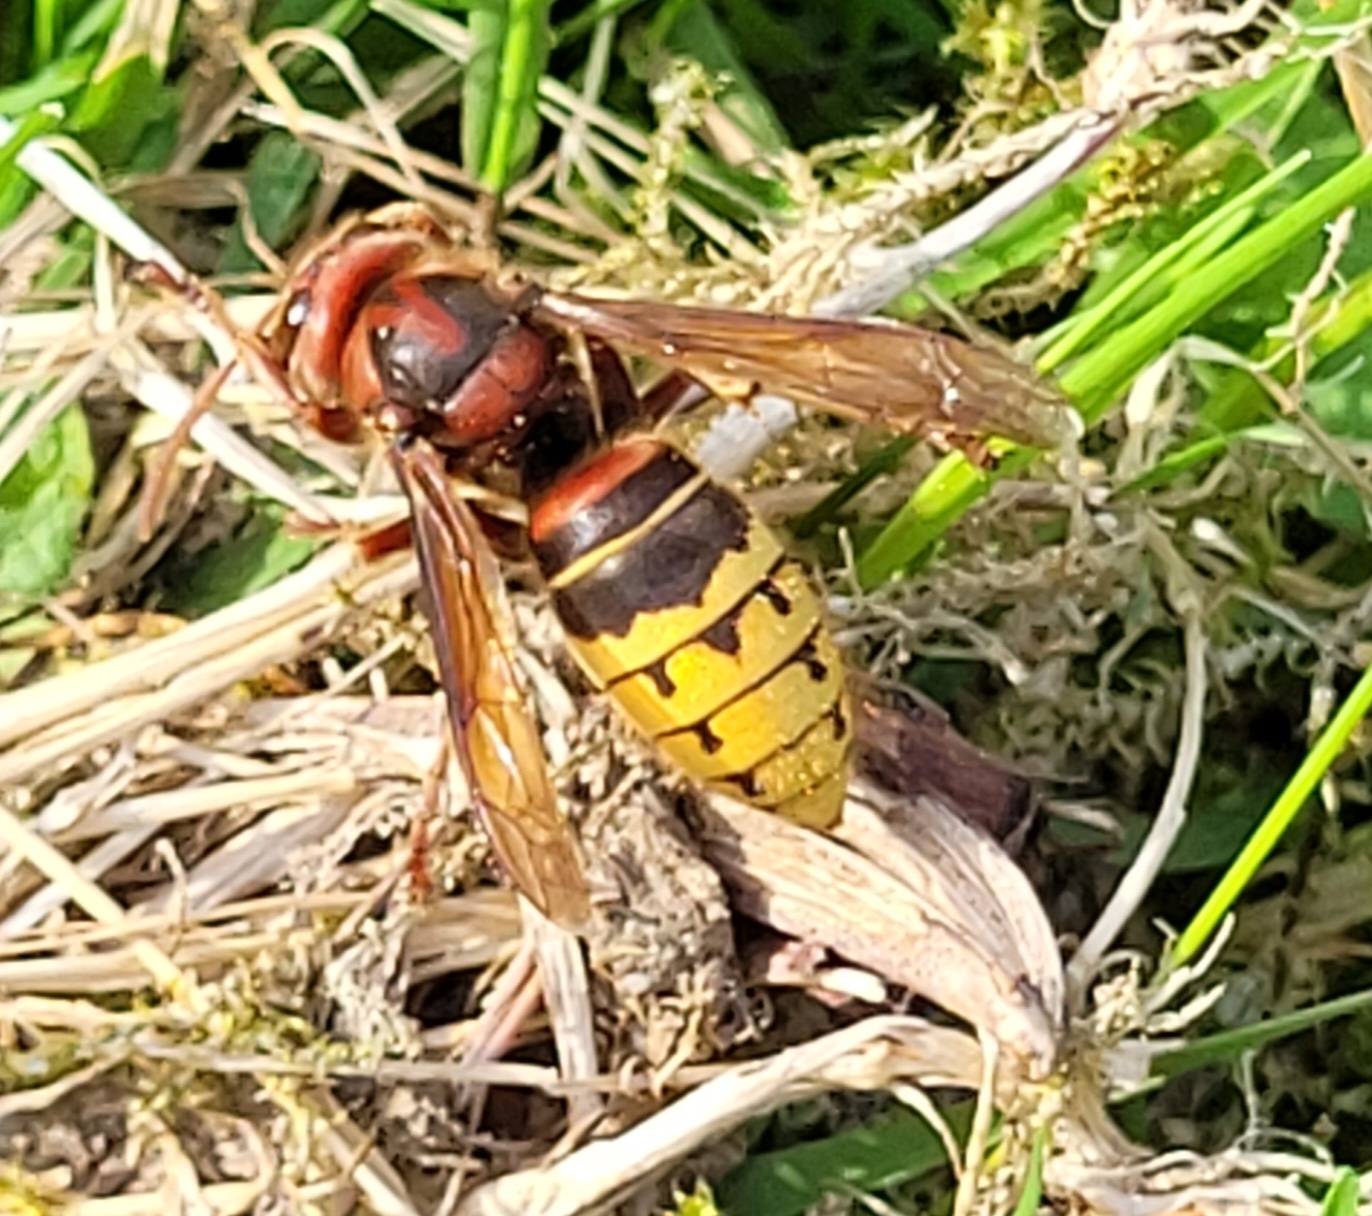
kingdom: Animalia
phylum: Arthropoda
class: Insecta
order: Hymenoptera
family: Vespidae
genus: Vespa
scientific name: Vespa crabro
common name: Stor gedehams
